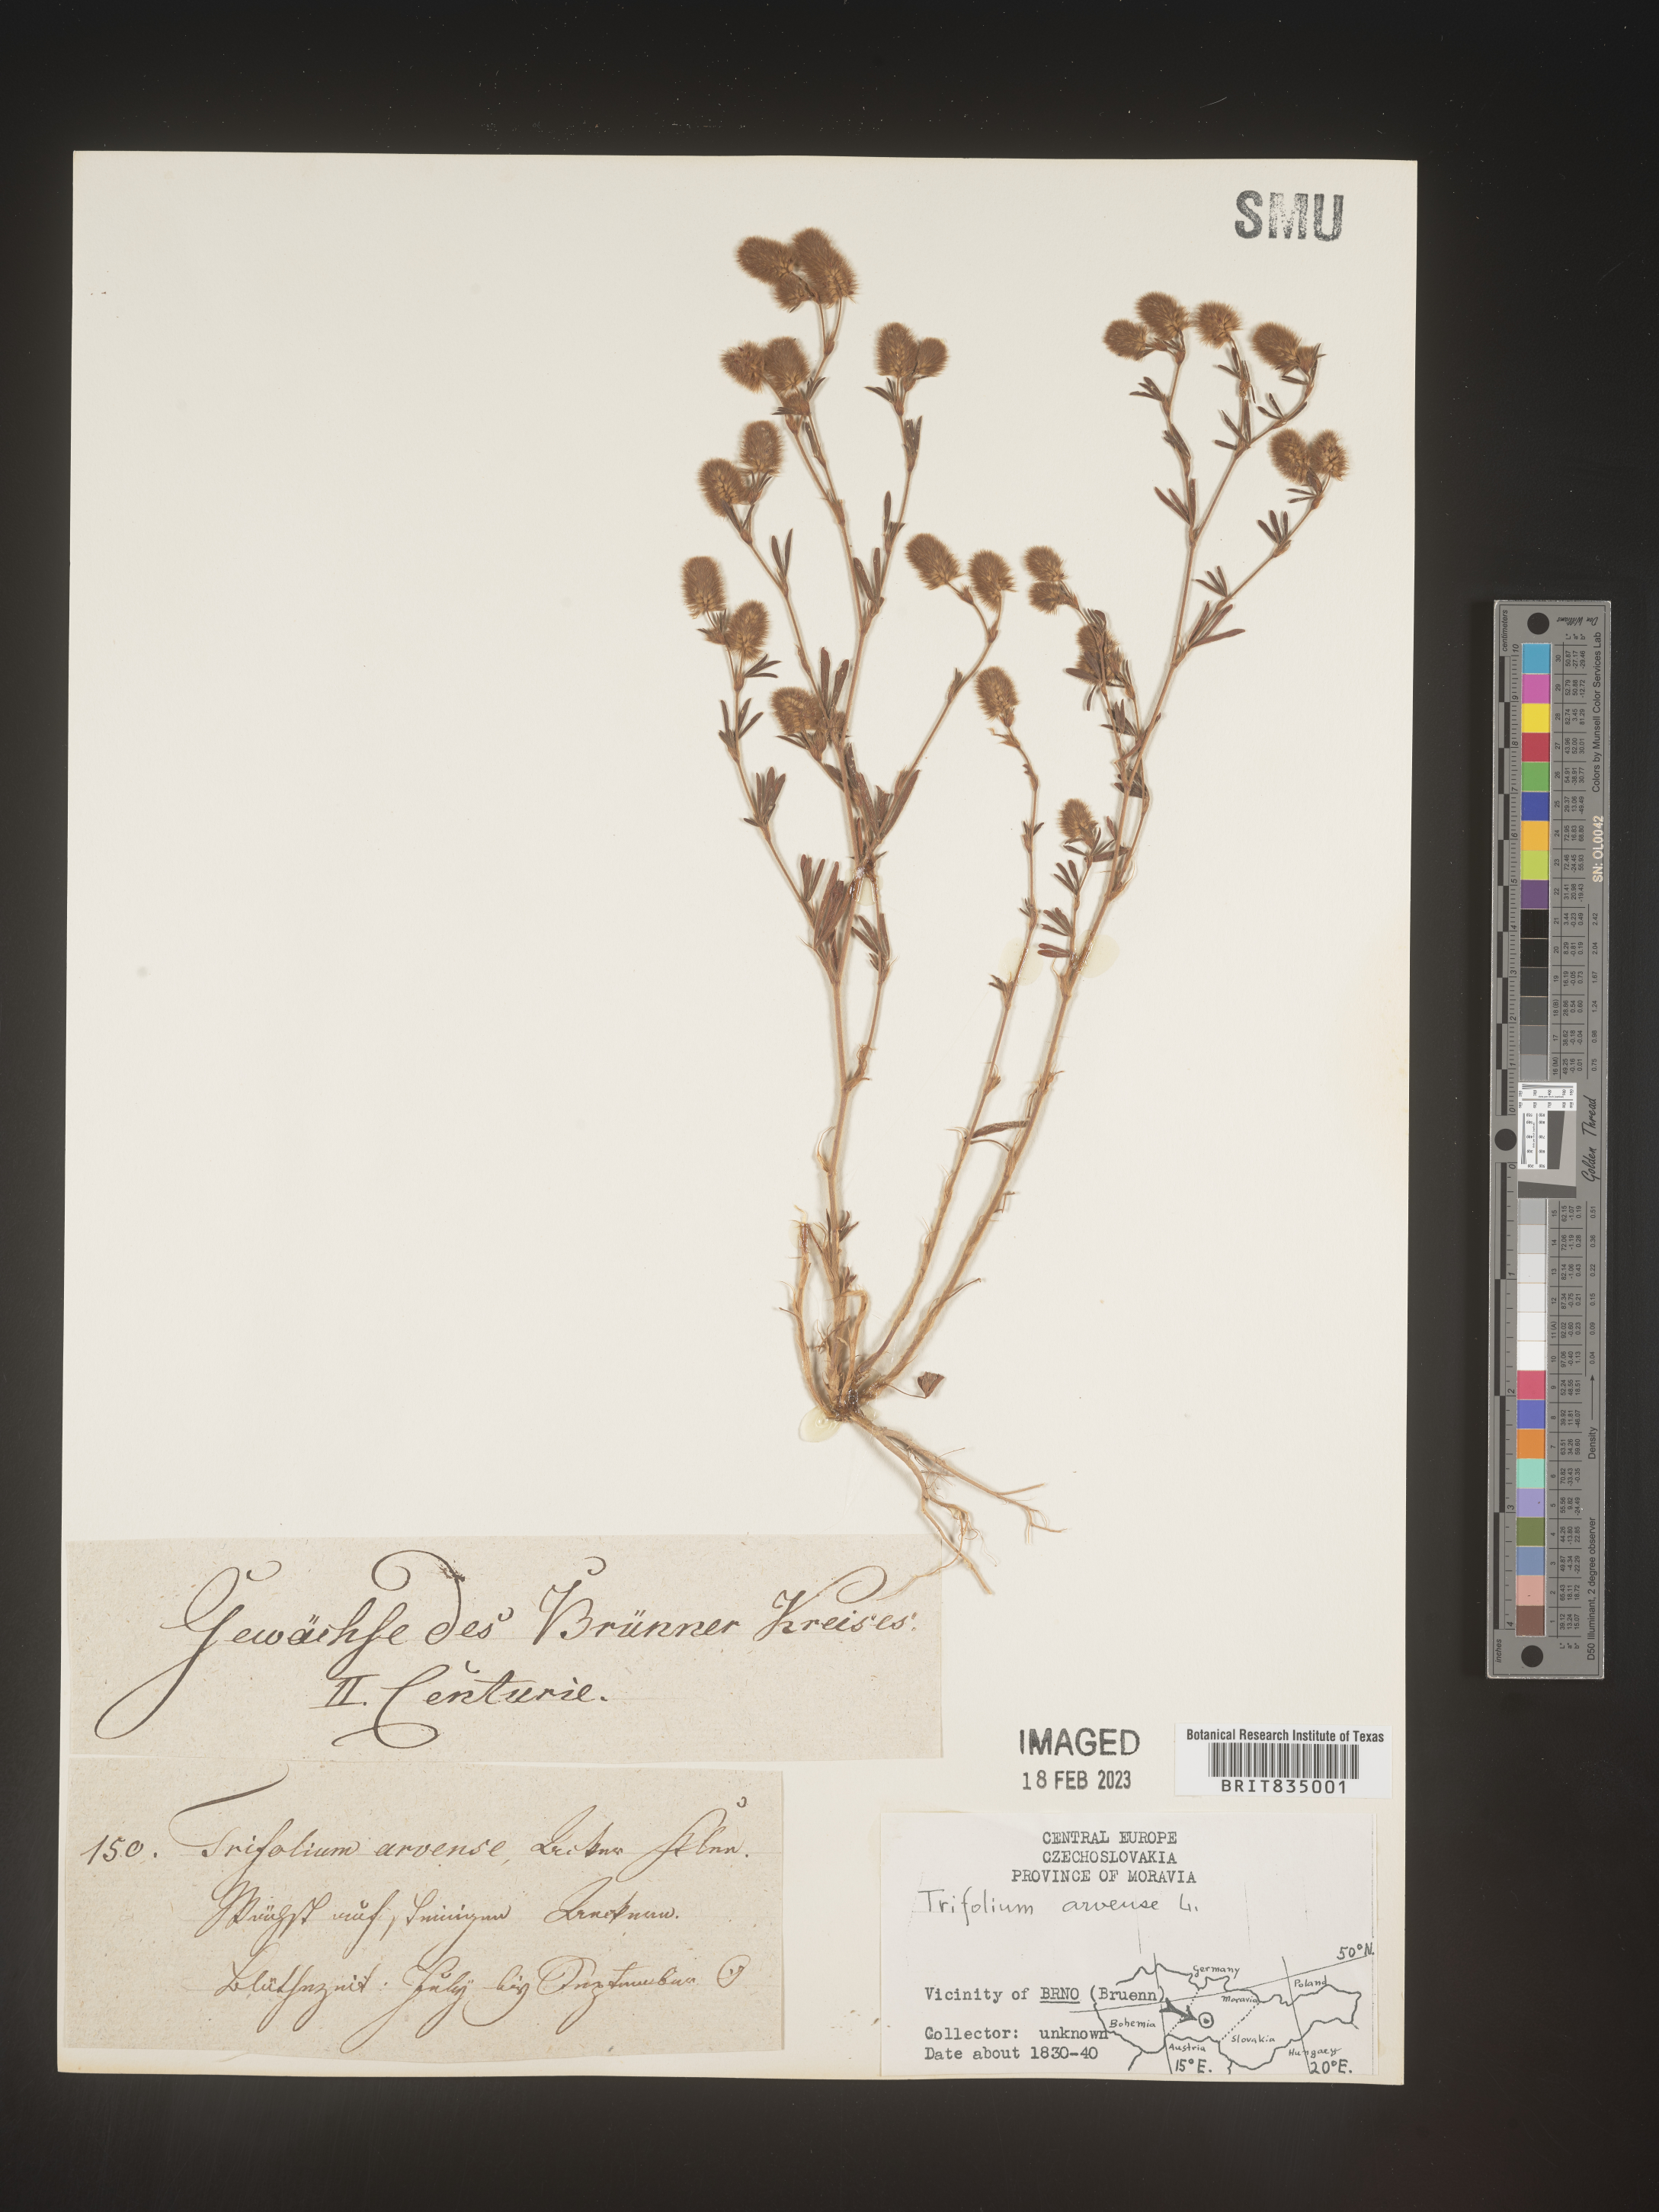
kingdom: Plantae
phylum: Tracheophyta
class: Magnoliopsida
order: Fabales
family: Fabaceae
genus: Trifolium
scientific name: Trifolium
